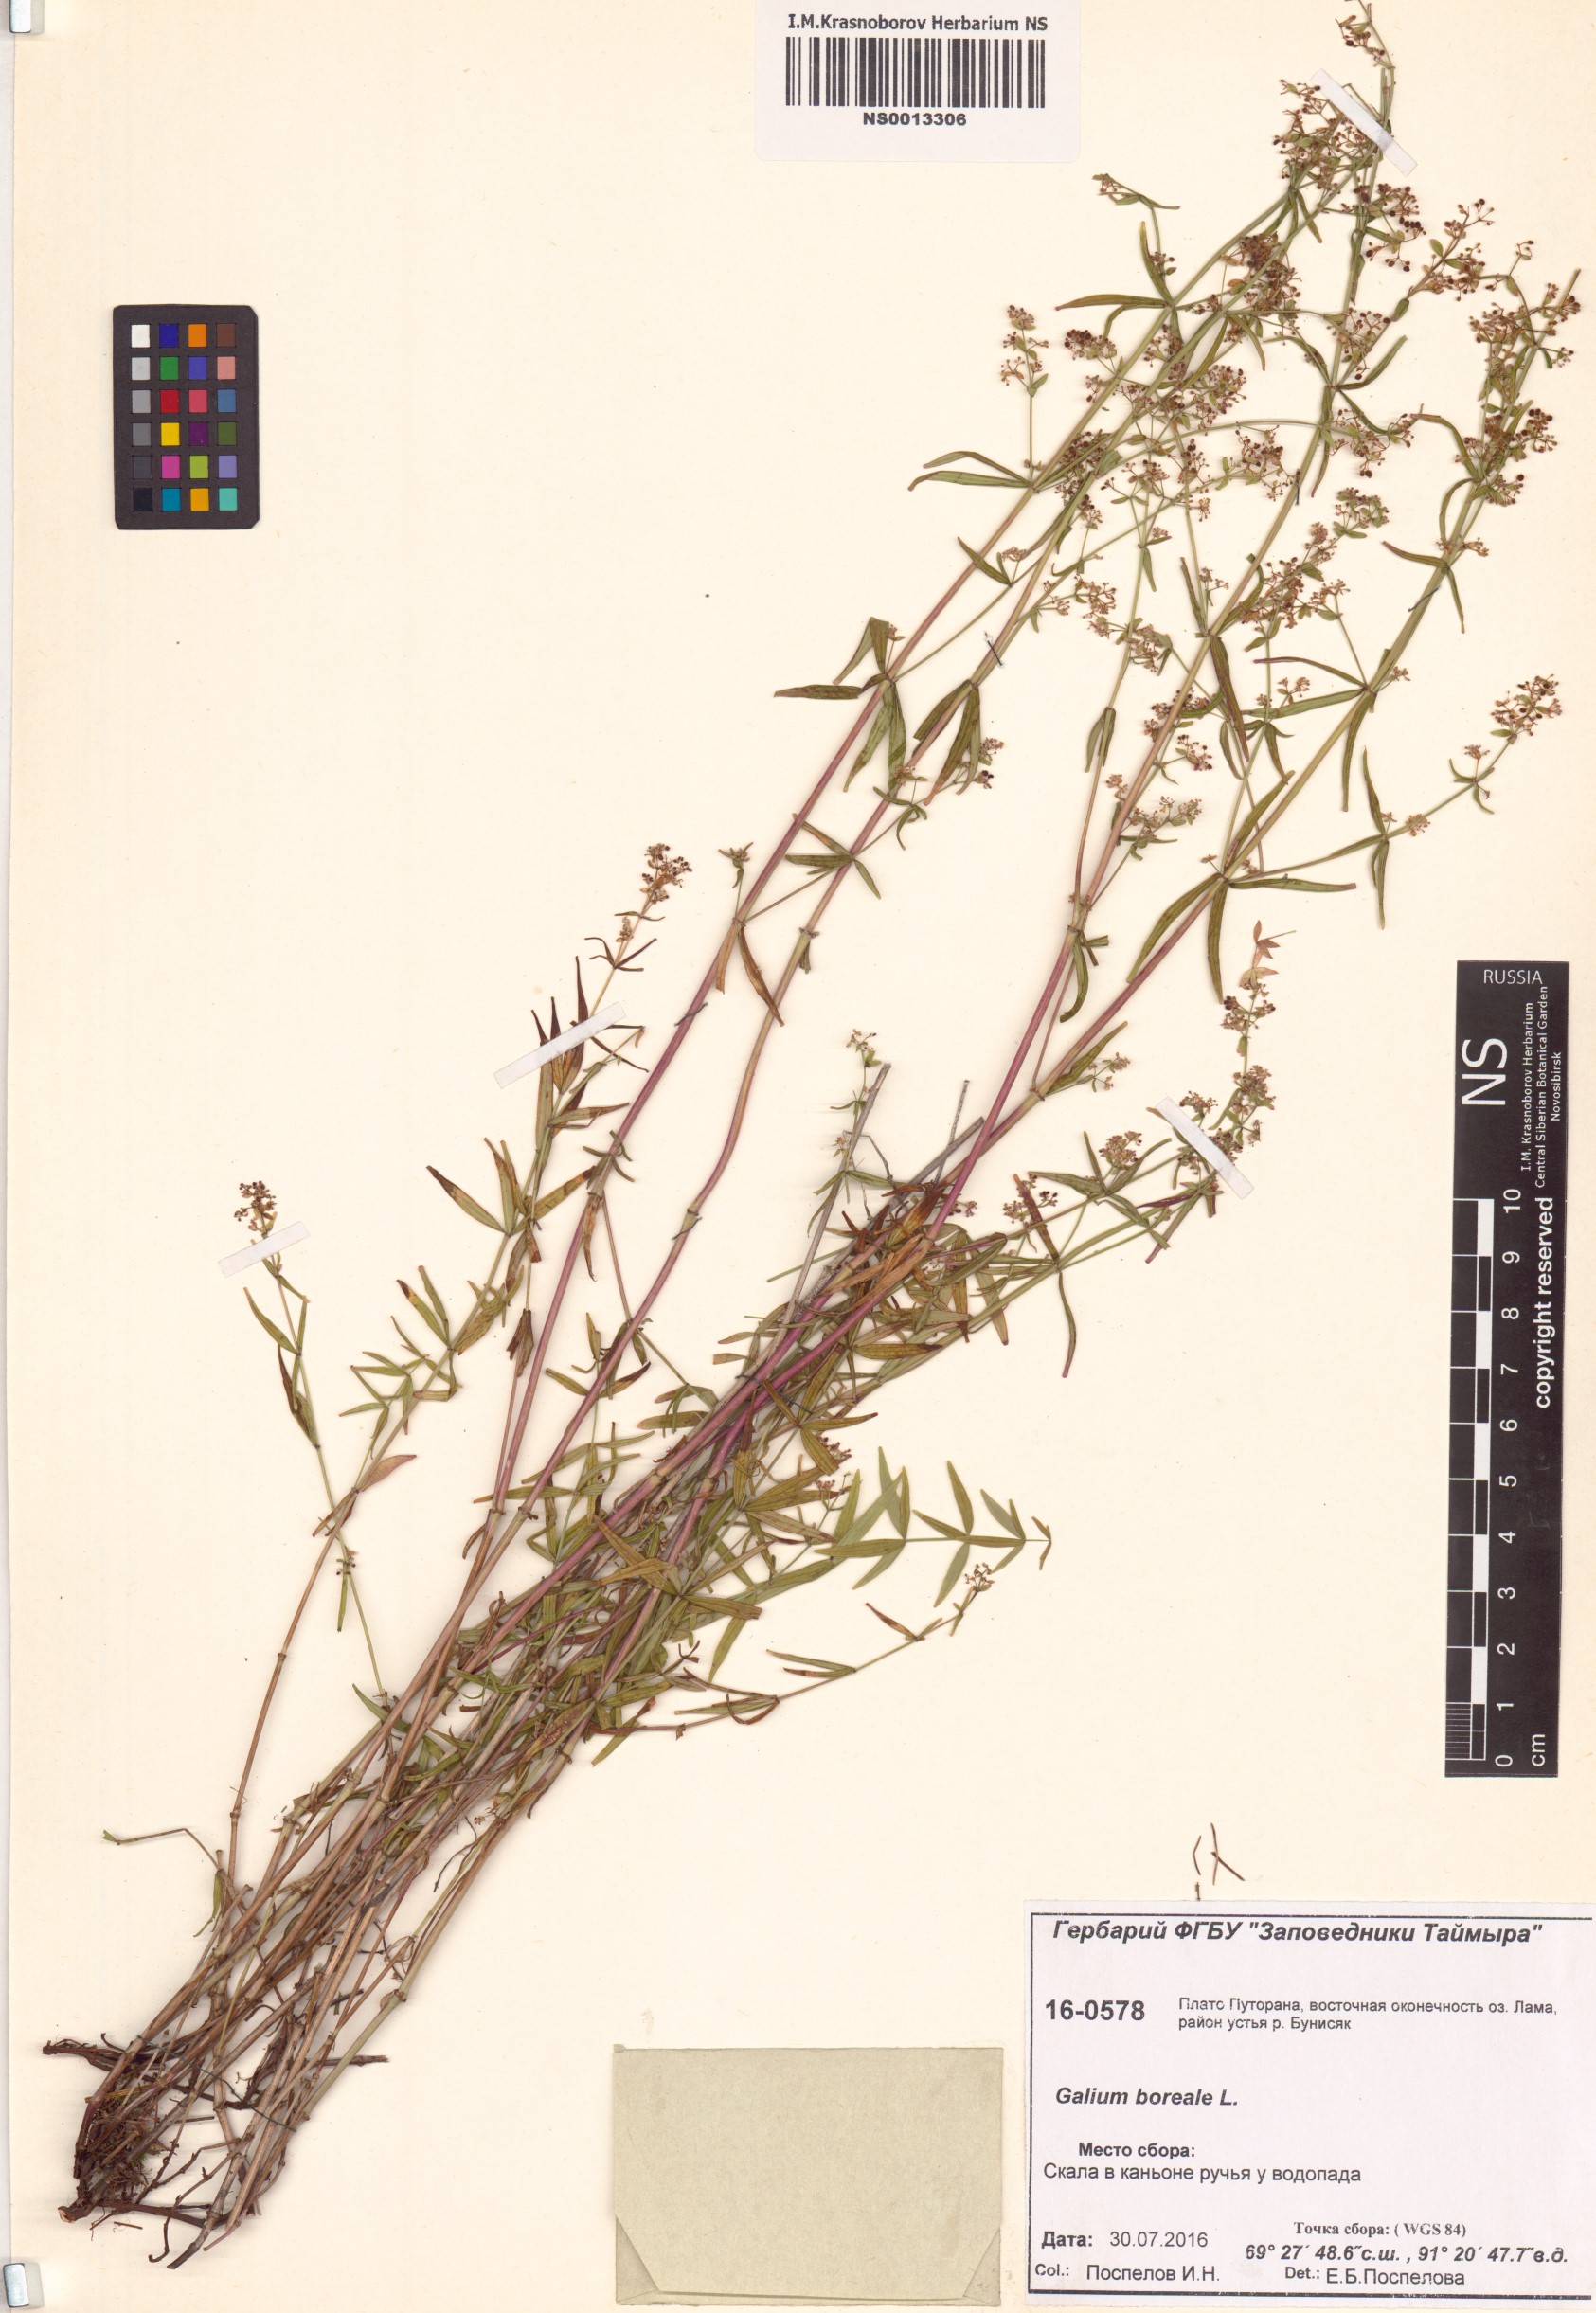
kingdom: Plantae
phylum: Tracheophyta
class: Magnoliopsida
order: Gentianales
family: Rubiaceae
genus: Galium
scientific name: Galium boreale
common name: Northern bedstraw
